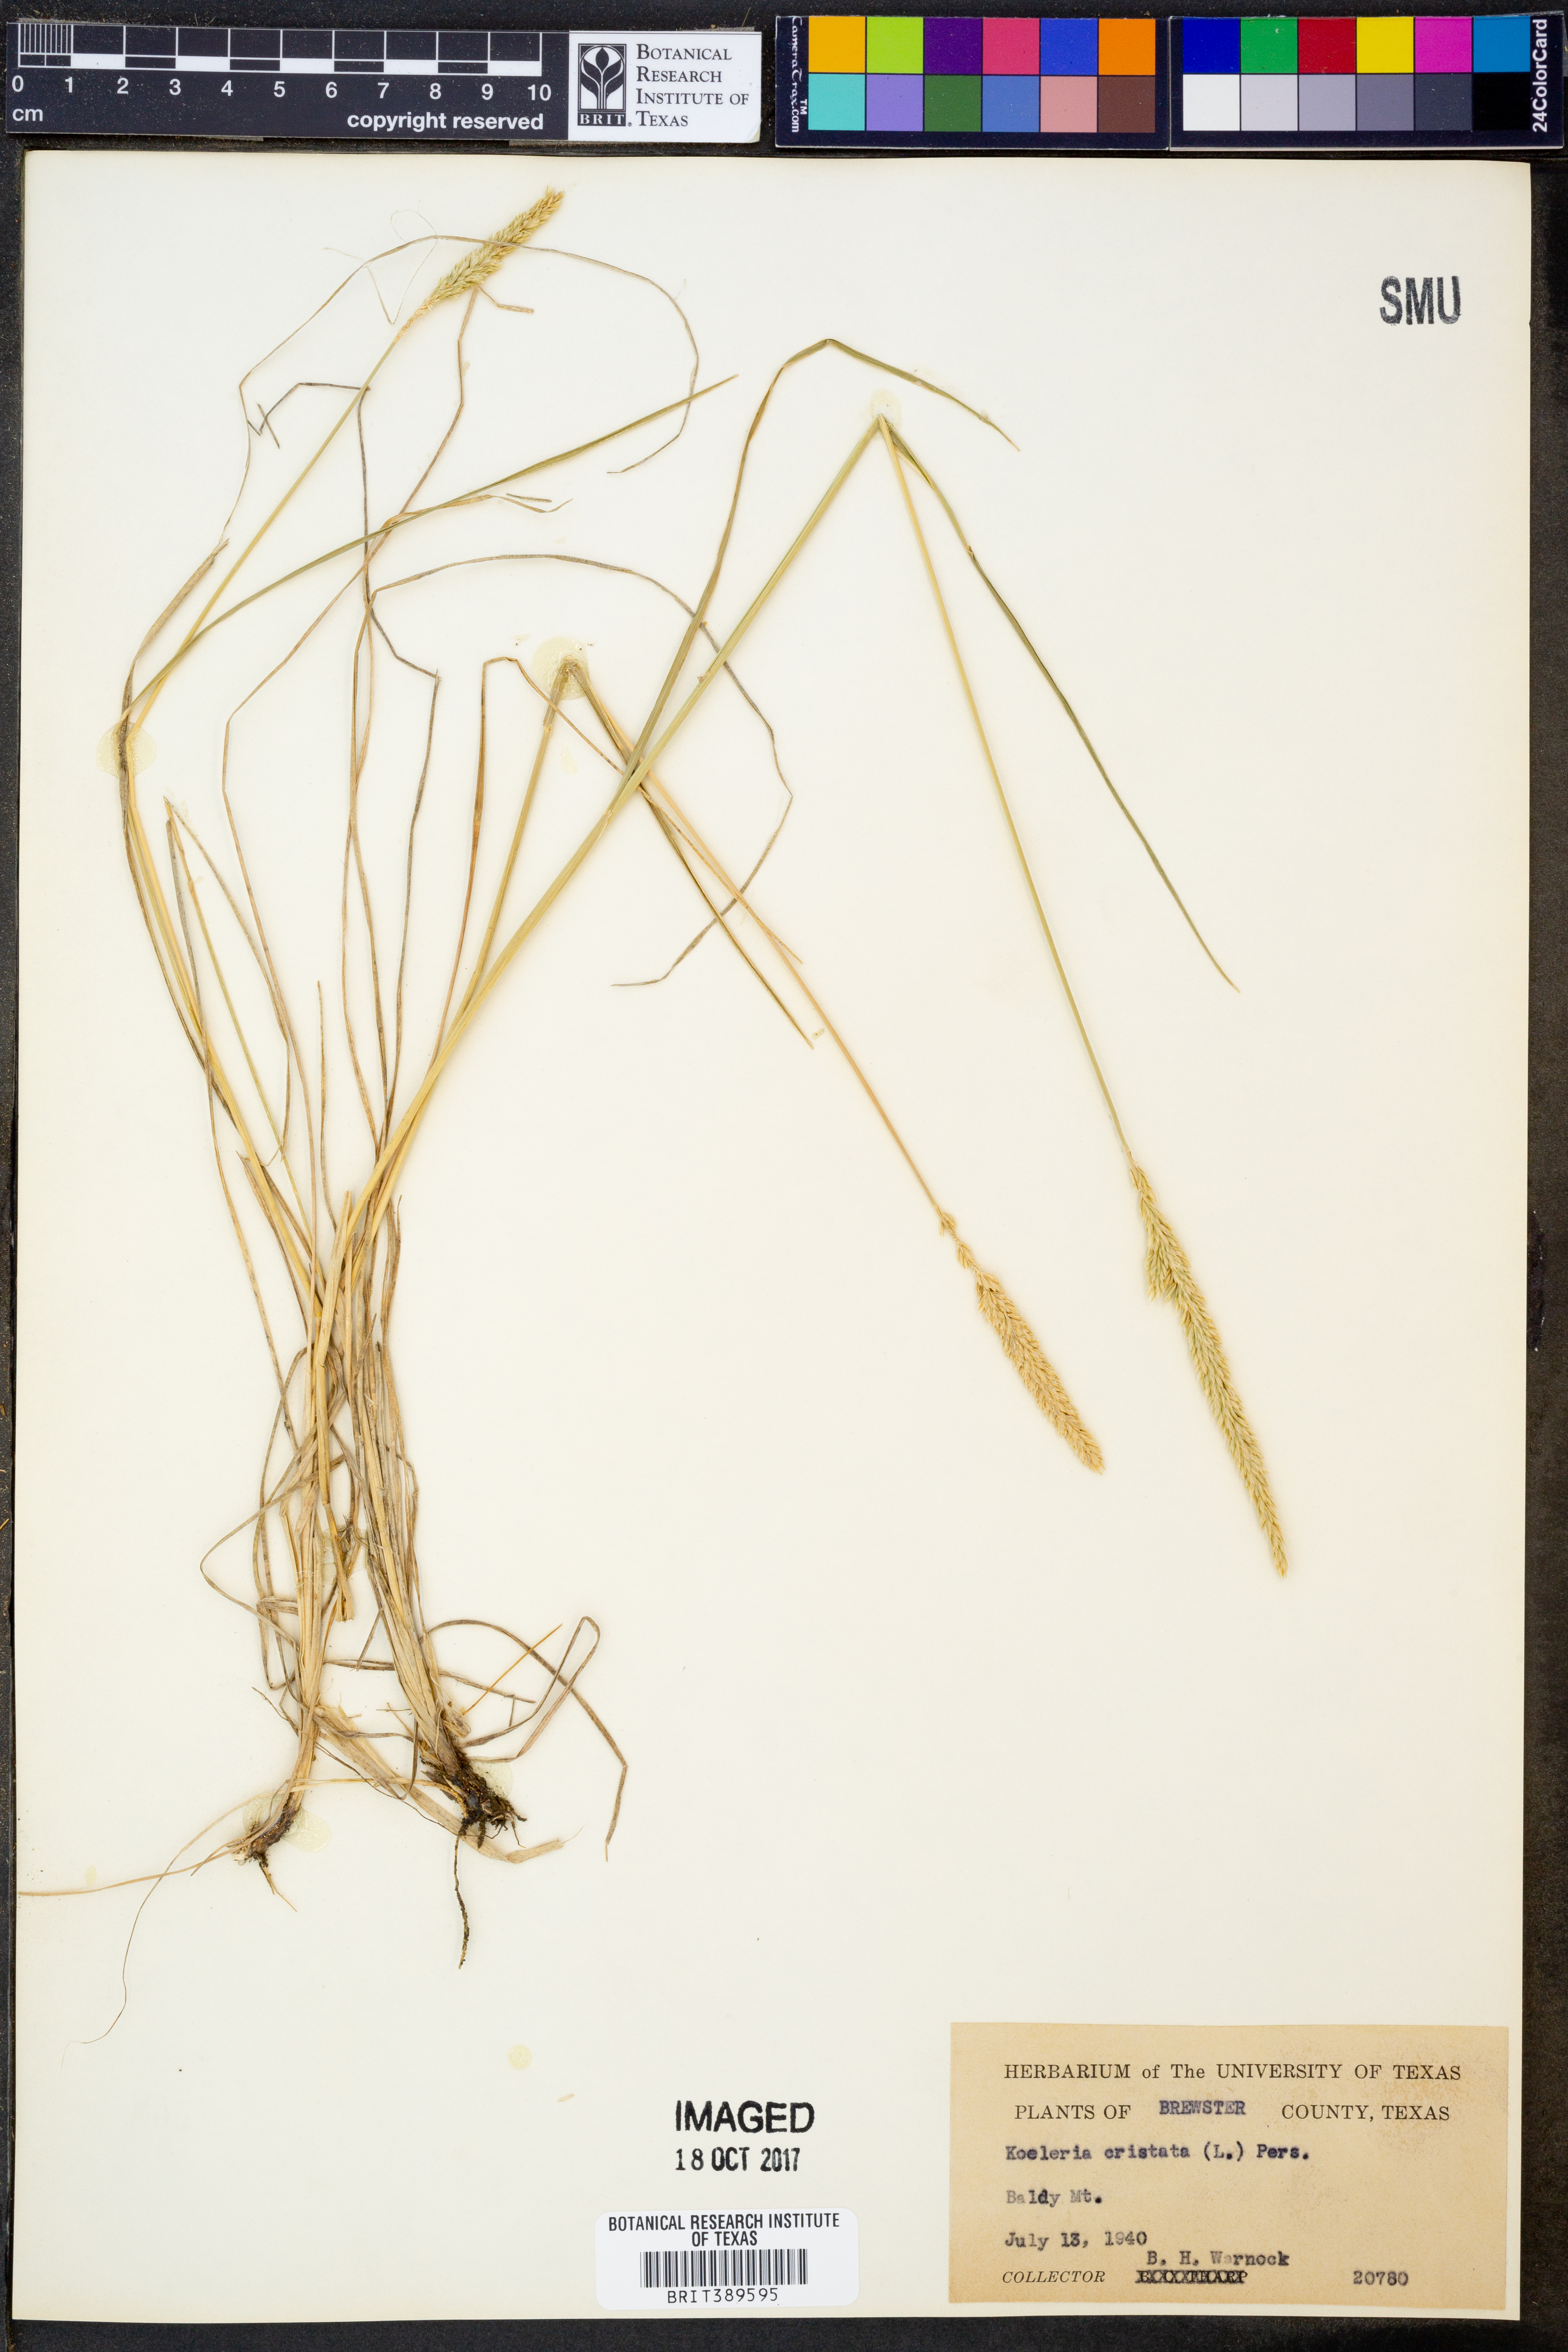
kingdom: Plantae
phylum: Tracheophyta
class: Liliopsida
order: Poales
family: Poaceae
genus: Koeleria
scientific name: Koeleria cristata
